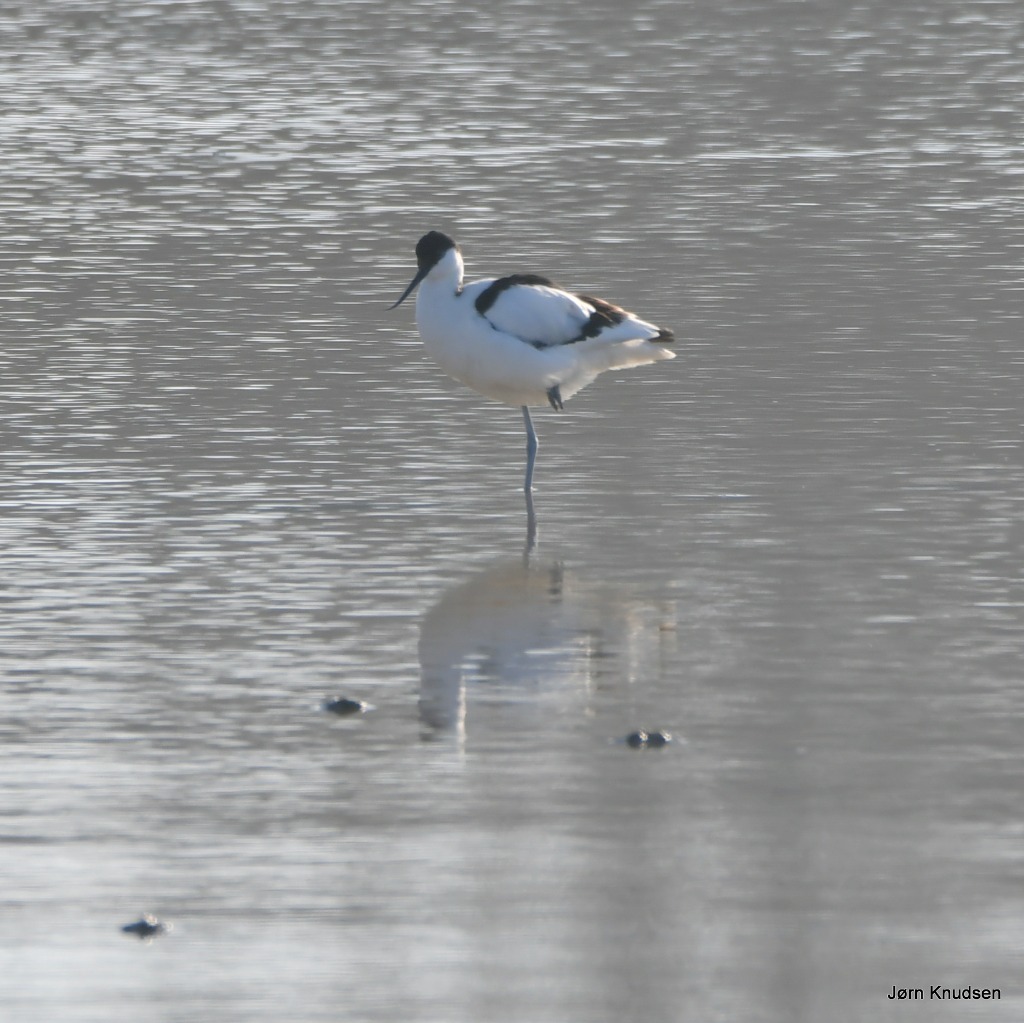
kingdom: Animalia
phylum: Chordata
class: Aves
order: Charadriiformes
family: Recurvirostridae
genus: Recurvirostra
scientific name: Recurvirostra avosetta
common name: Klyde
